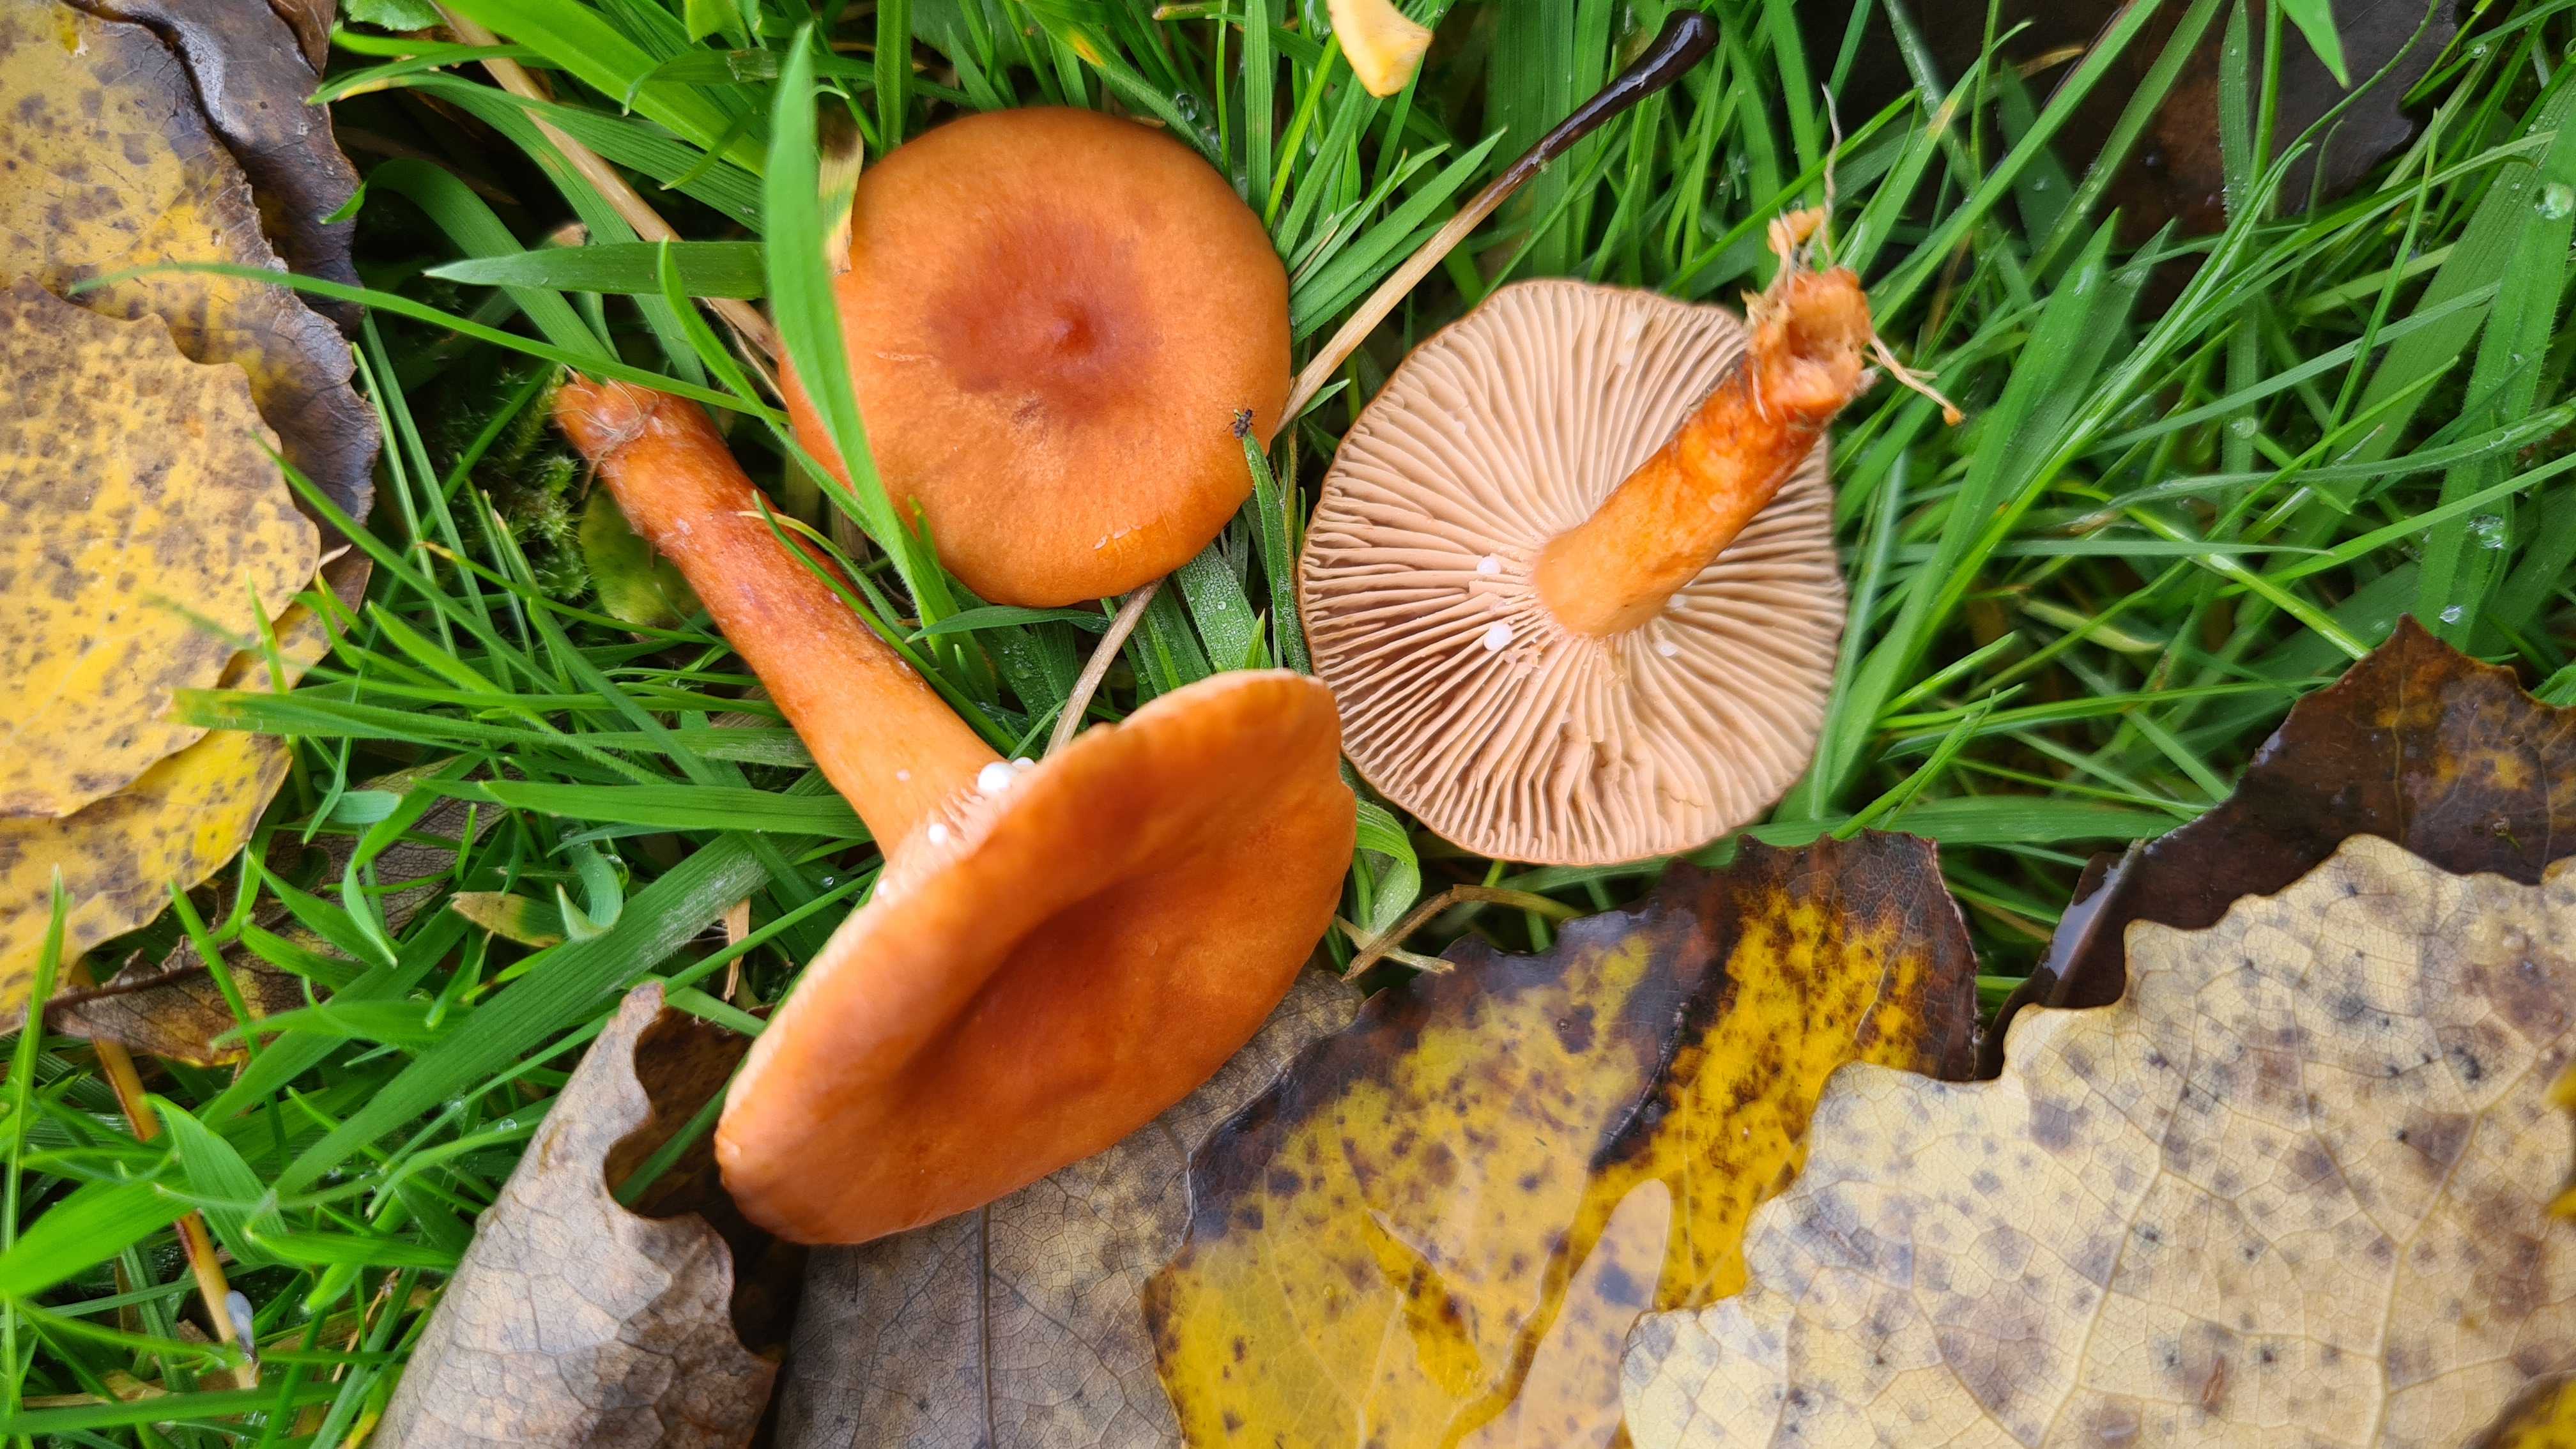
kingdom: Fungi
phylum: Basidiomycota
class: Agaricomycetes
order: Russulales
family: Russulaceae
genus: Lactarius
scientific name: Lactarius aurantiacus
